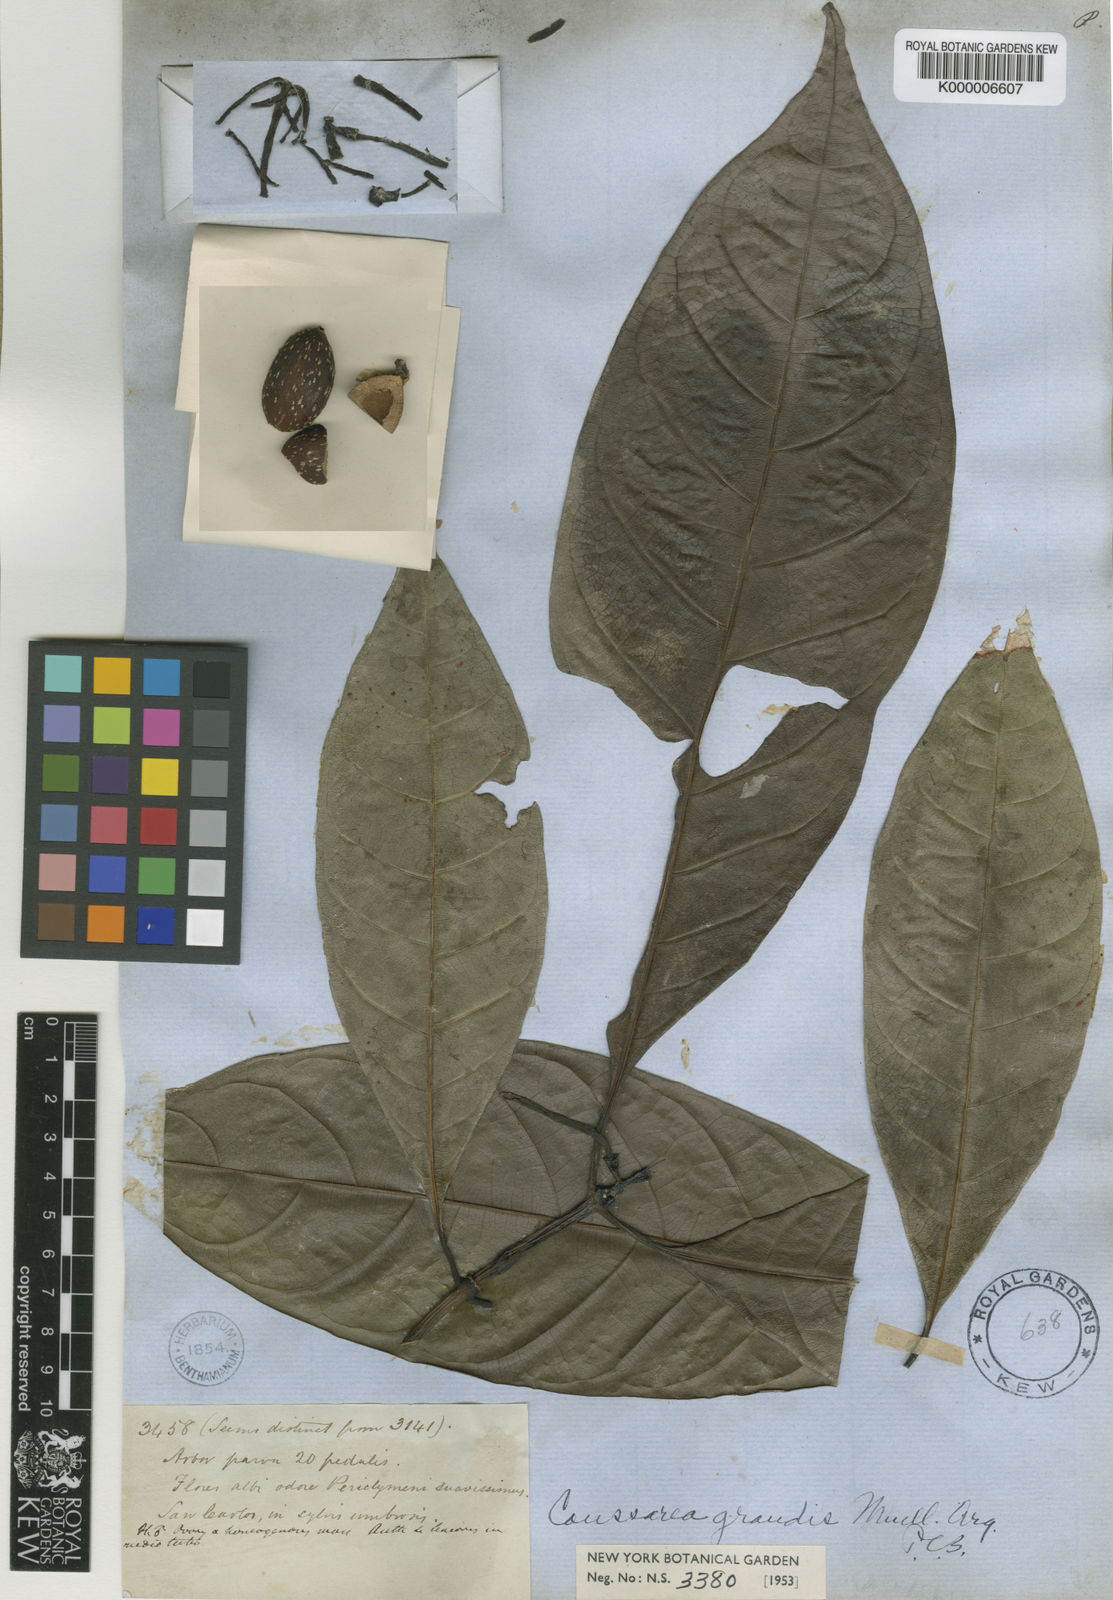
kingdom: Plantae
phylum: Tracheophyta
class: Magnoliopsida
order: Gentianales
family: Rubiaceae
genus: Coussarea
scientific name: Coussarea
